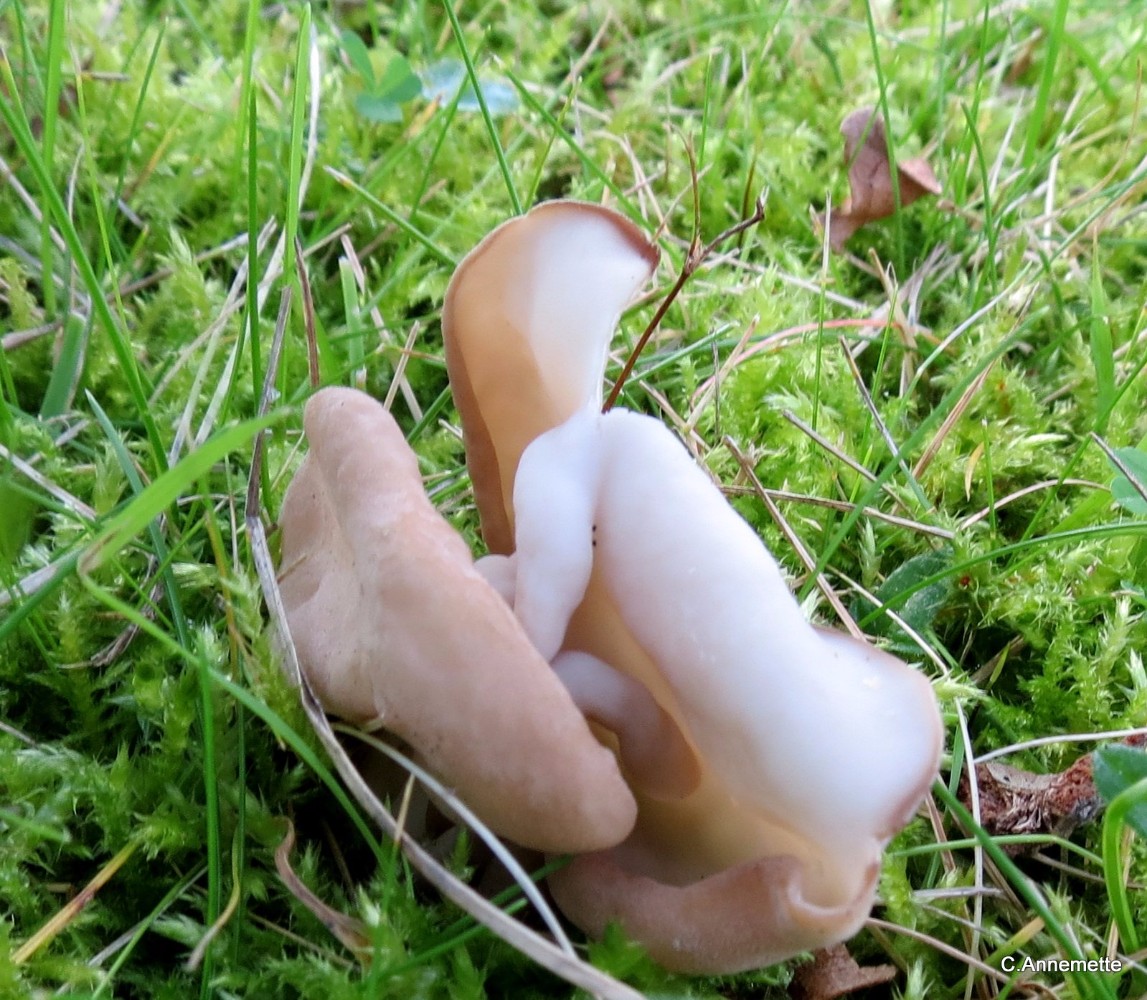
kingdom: Fungi
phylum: Ascomycota
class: Pezizomycetes
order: Pezizales
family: Helvellaceae
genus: Helvella
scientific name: Helvella crispa
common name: kruset foldhat
